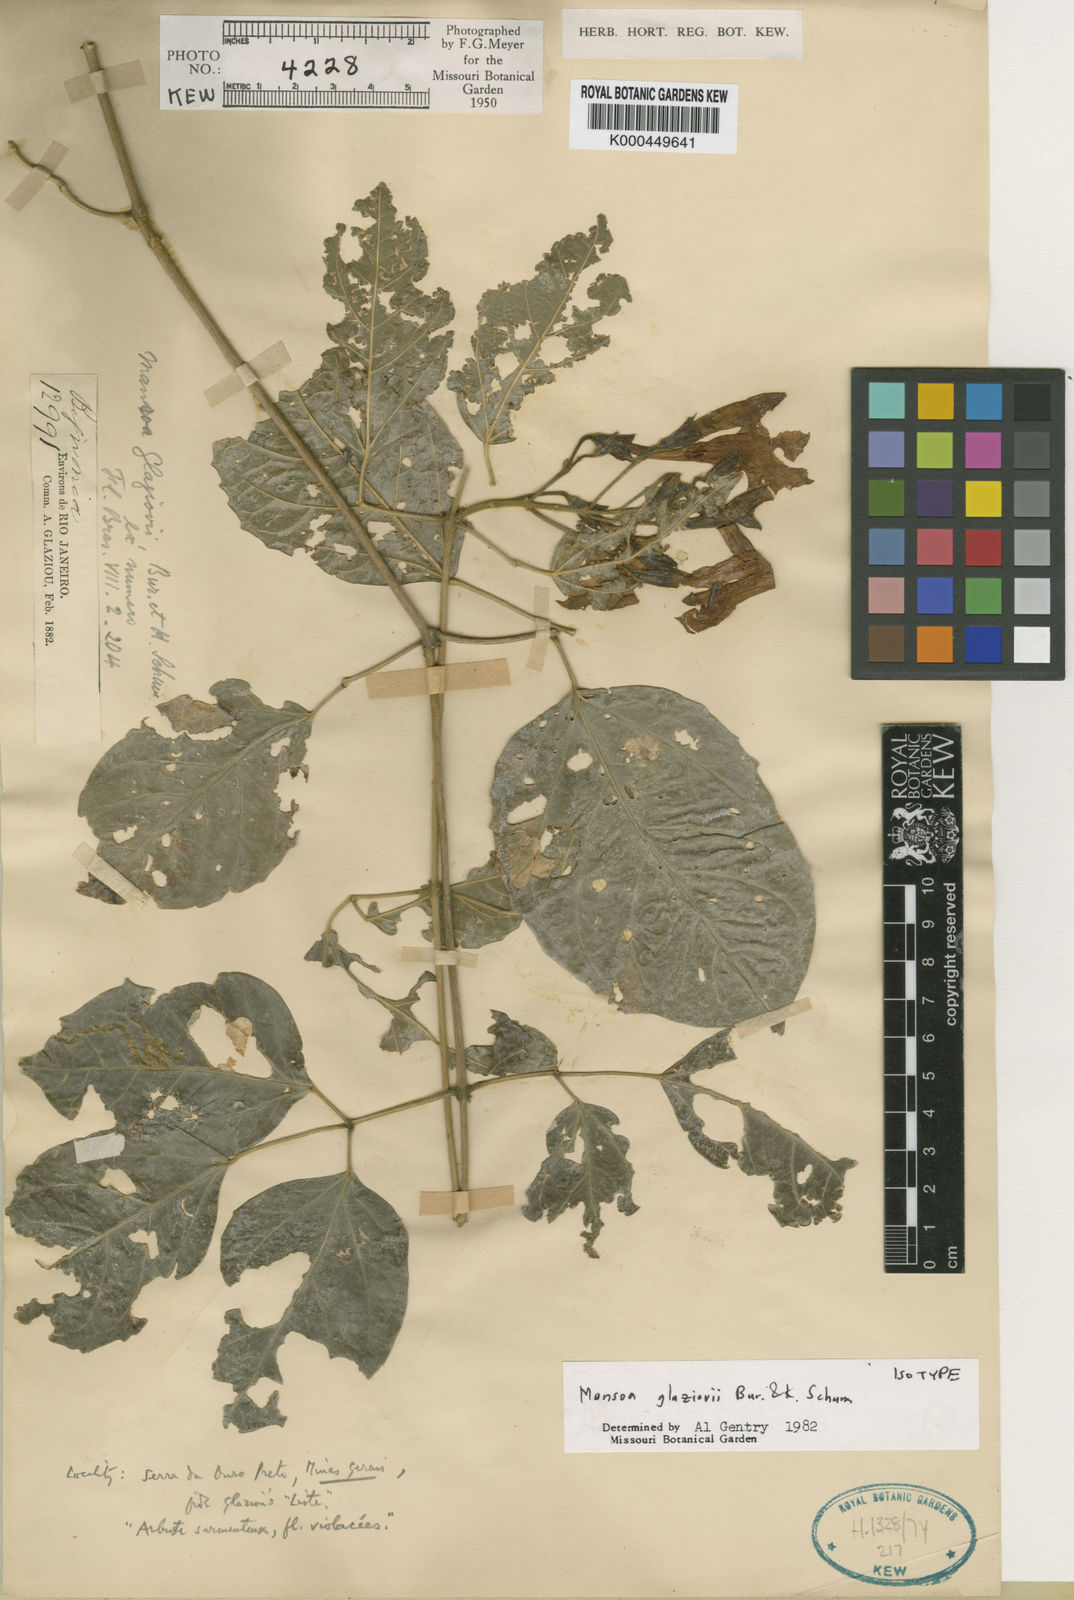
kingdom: Plantae
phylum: Tracheophyta
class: Magnoliopsida
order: Lamiales
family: Bignoniaceae
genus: Mansoa
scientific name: Mansoa glaziovii
